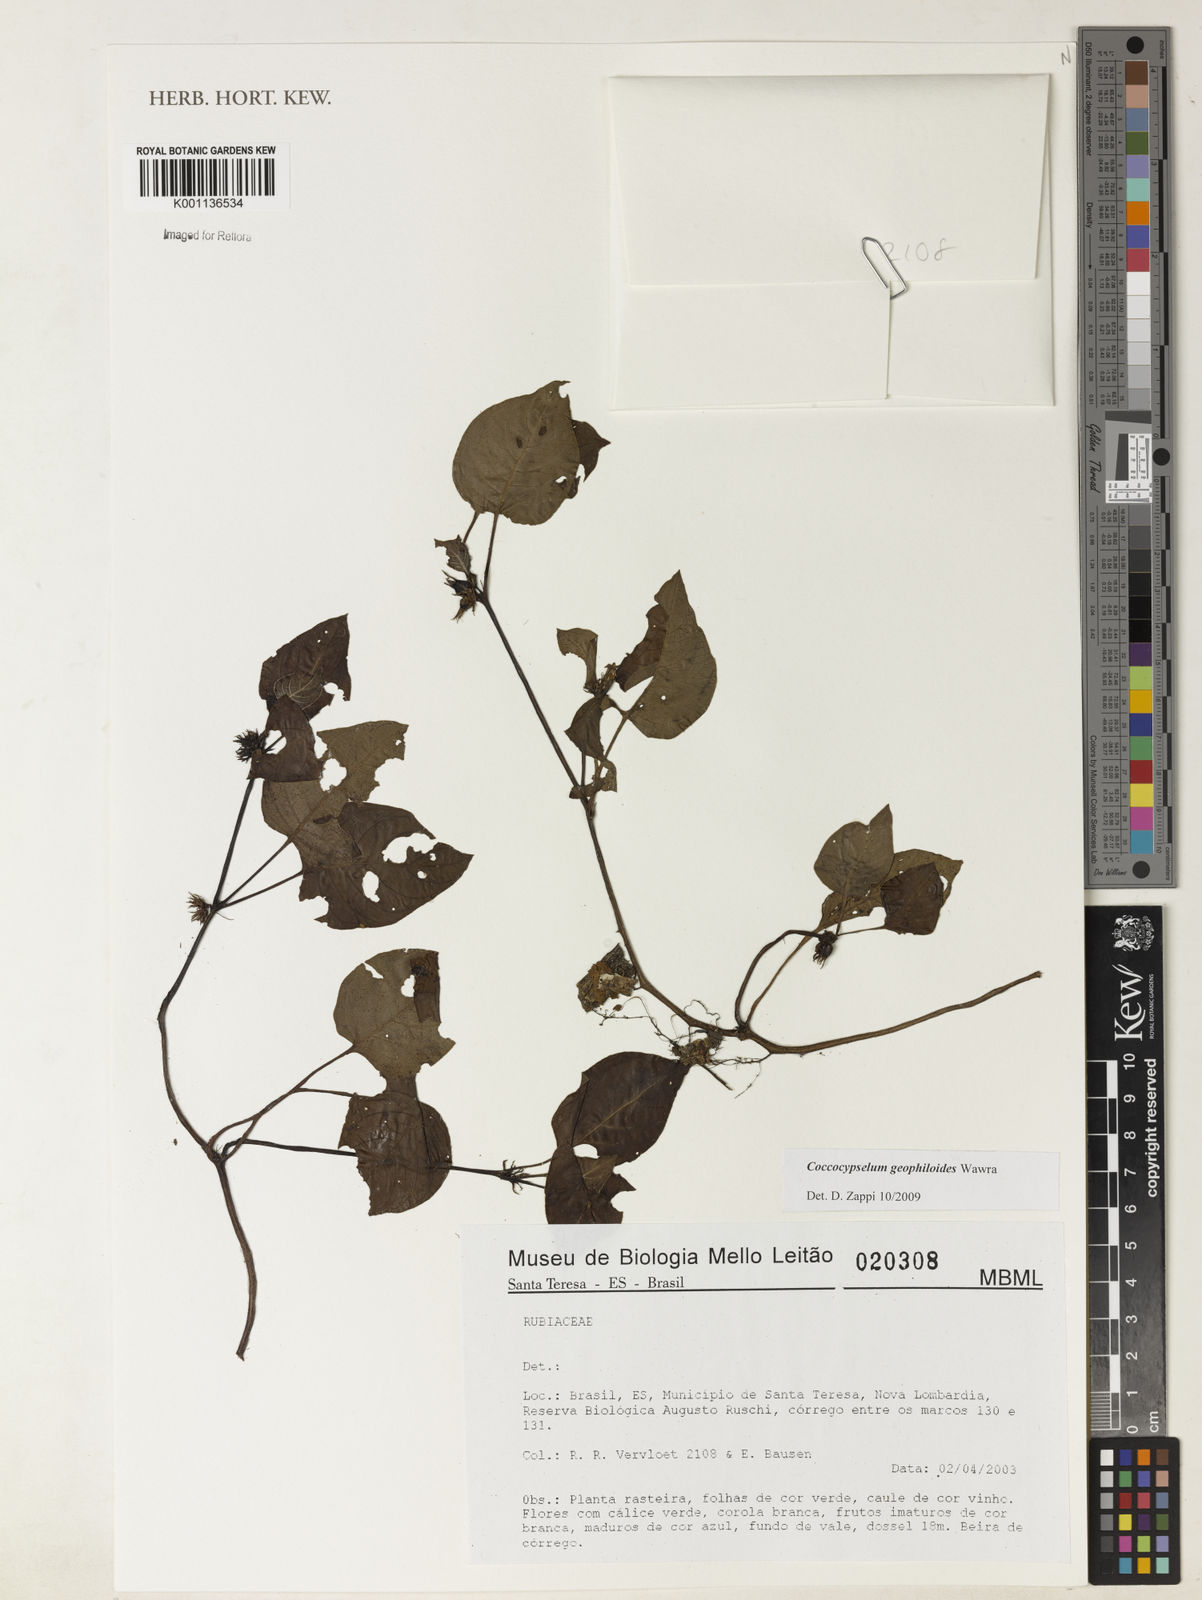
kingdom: Plantae
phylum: Tracheophyta
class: Magnoliopsida
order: Gentianales
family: Rubiaceae
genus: Coccocypselum
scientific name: Coccocypselum geophiloides
